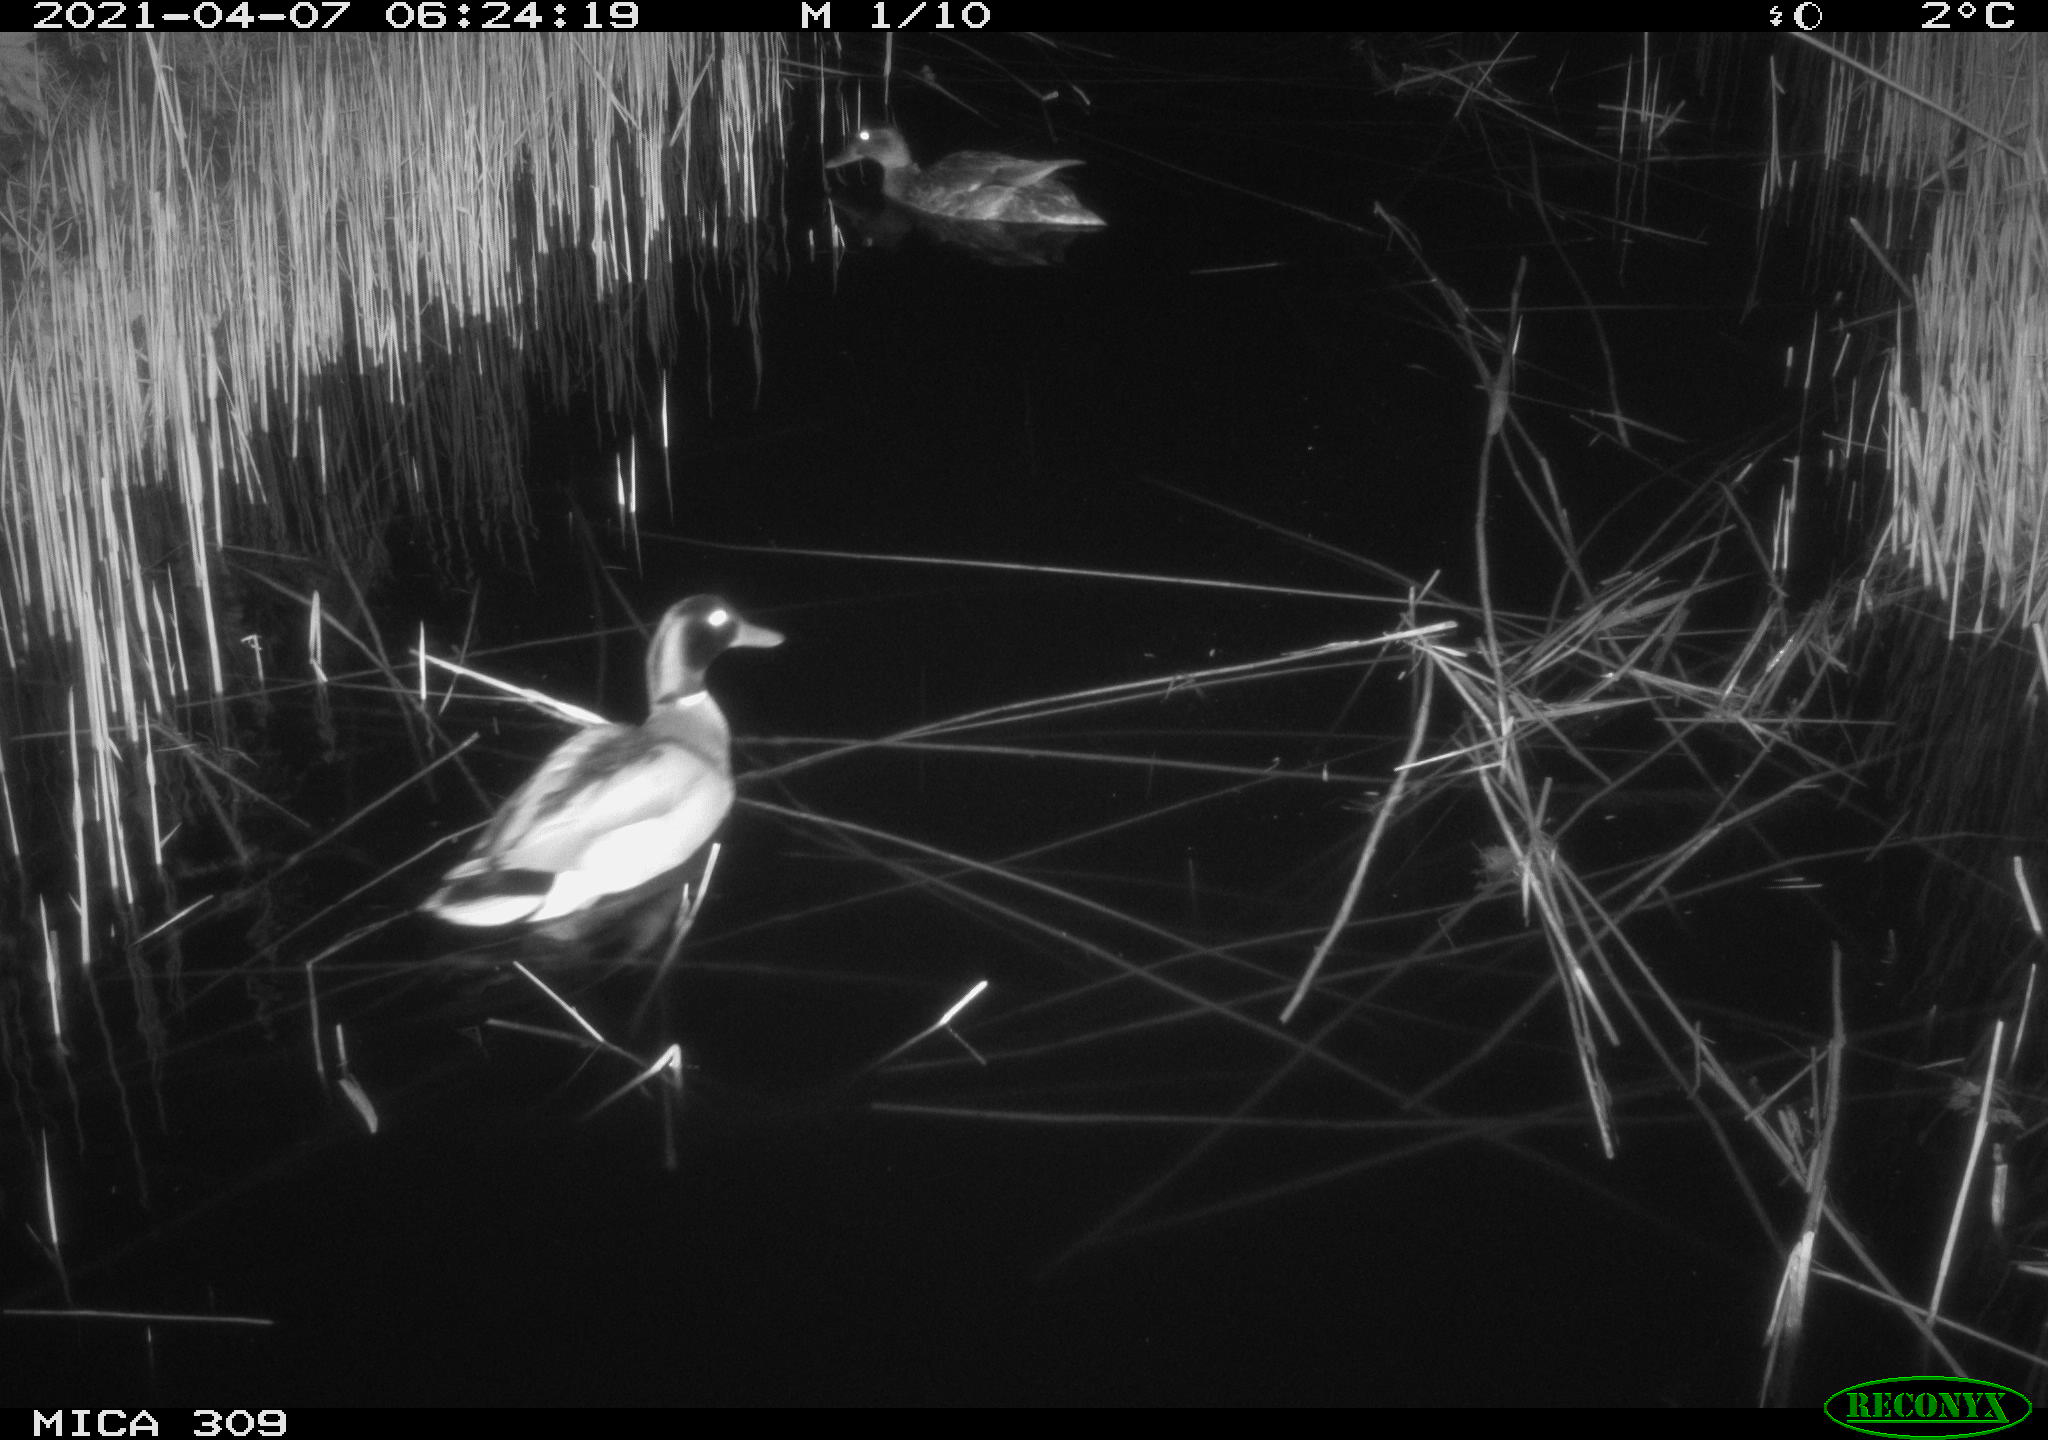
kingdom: Animalia
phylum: Chordata
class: Aves
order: Anseriformes
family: Anatidae
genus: Anas
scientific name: Anas platyrhynchos
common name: Mallard
